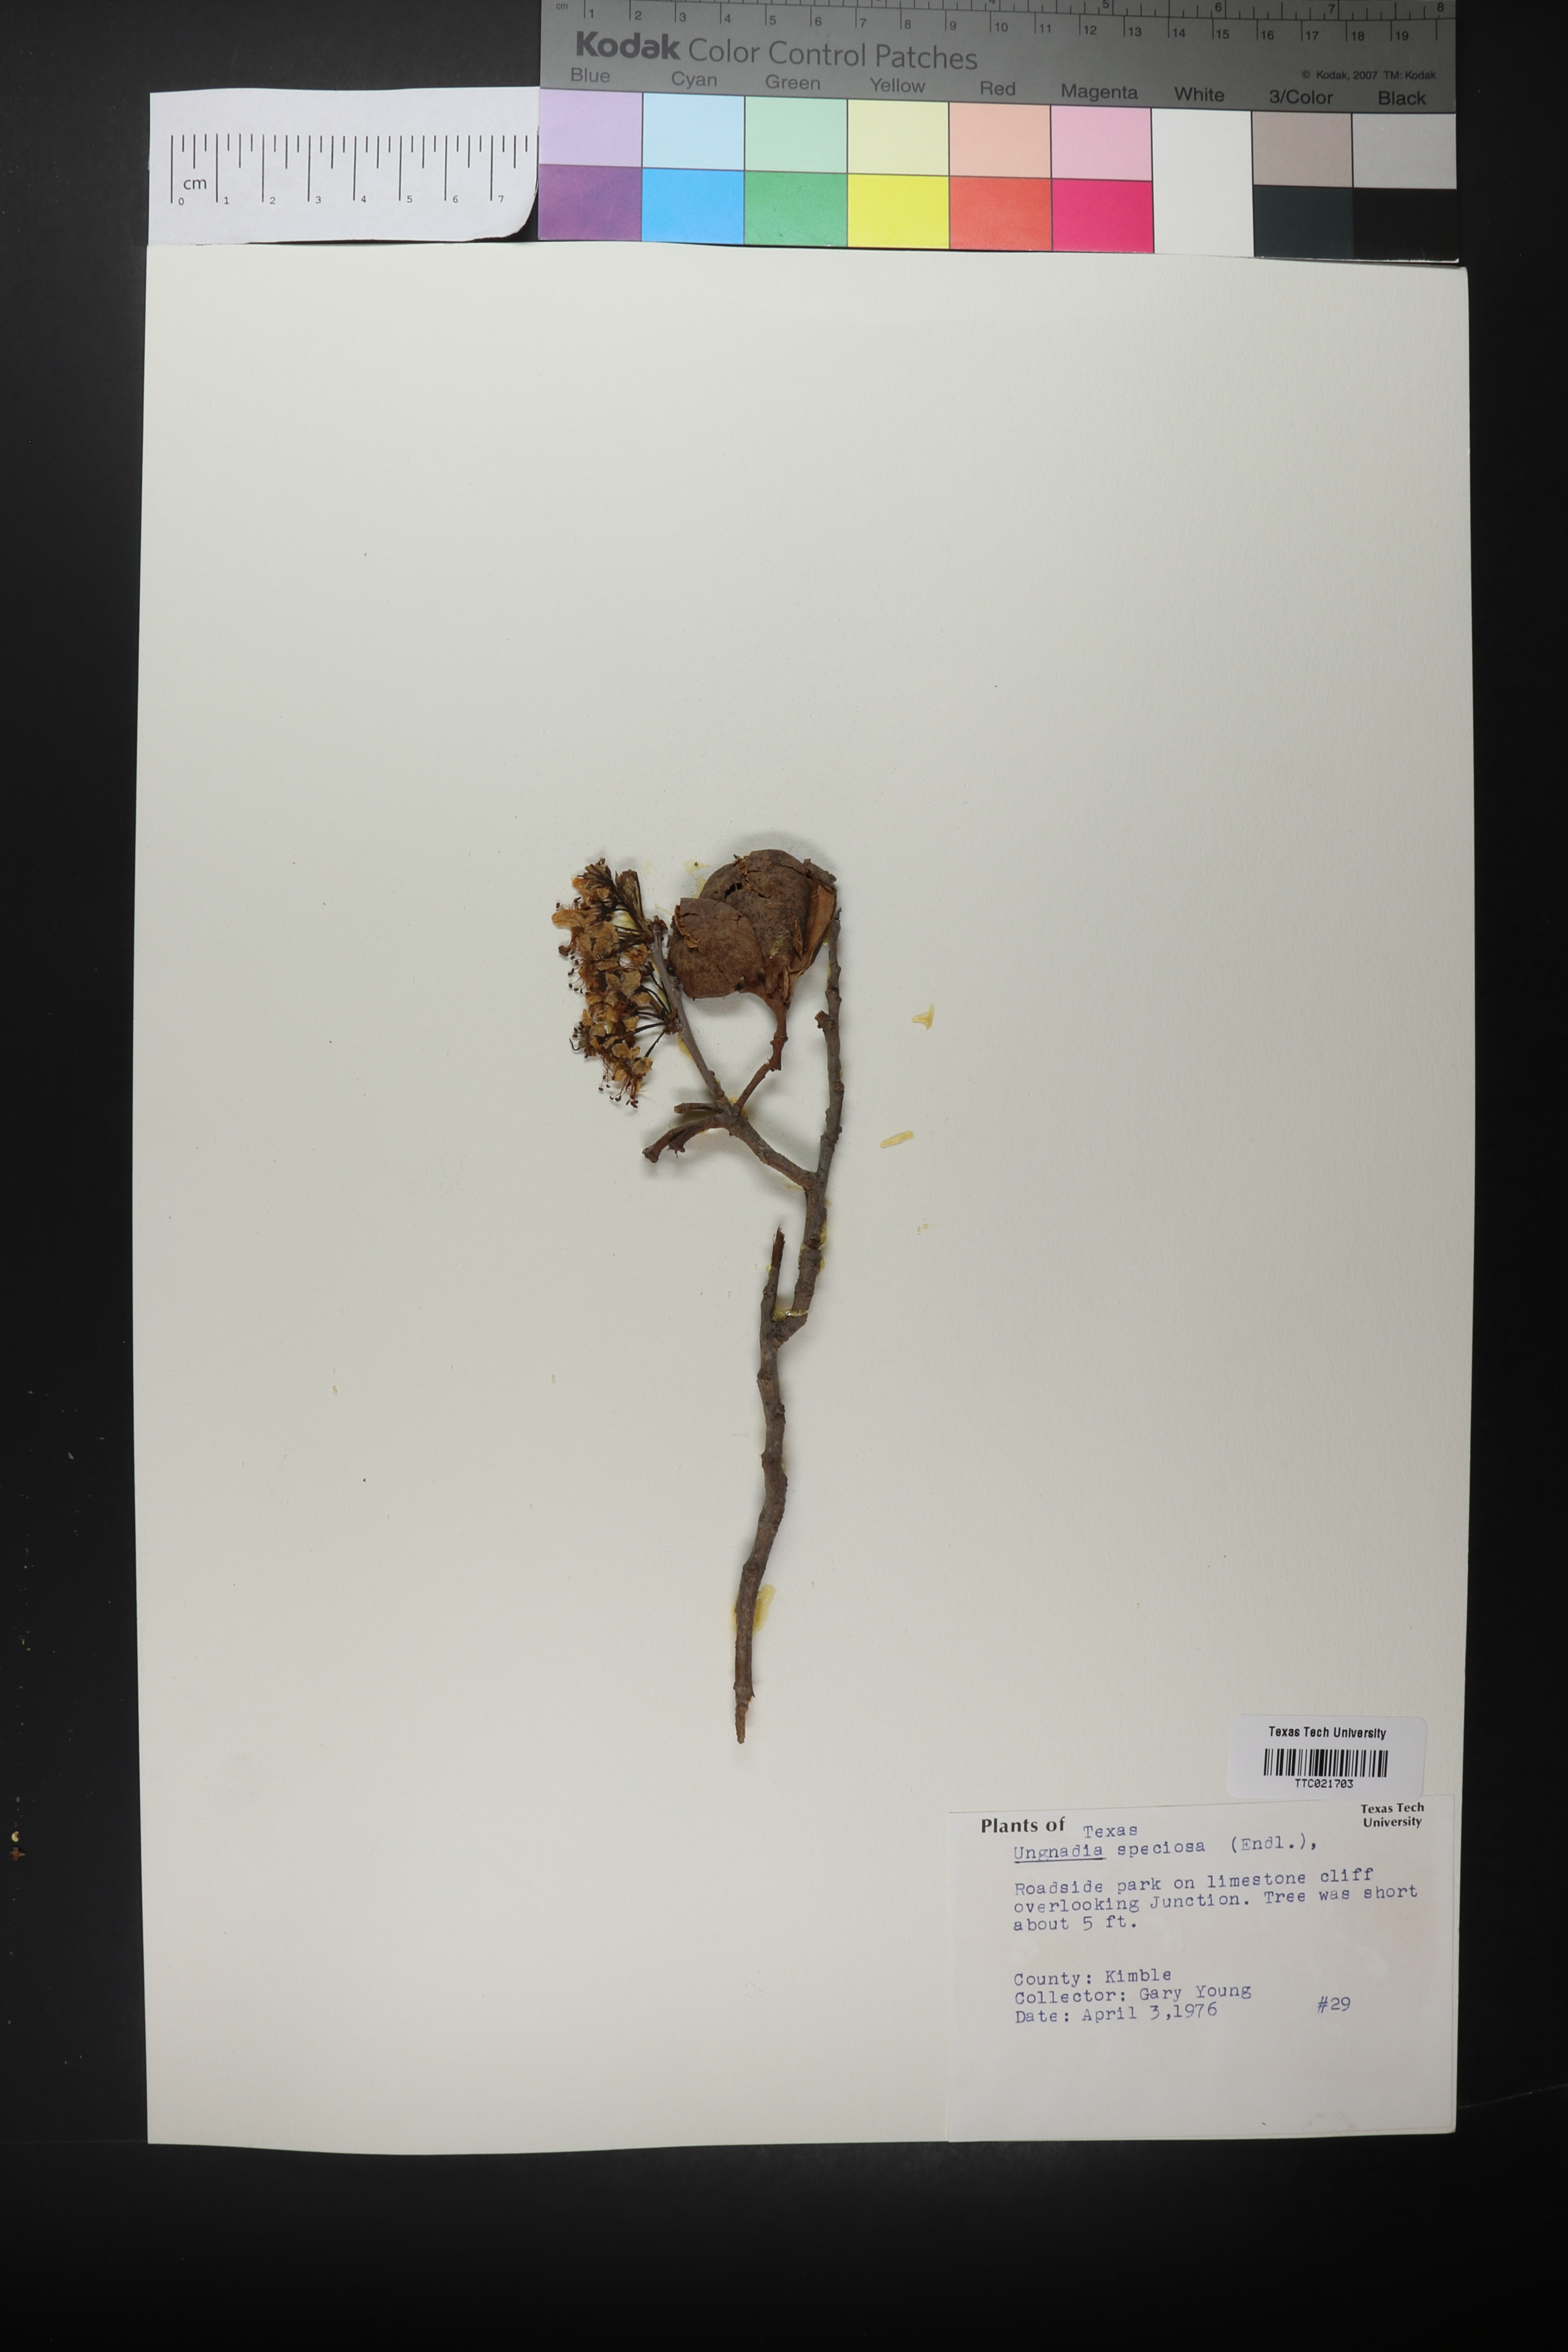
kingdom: Plantae
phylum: Tracheophyta
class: Magnoliopsida
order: Sapindales
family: Sapindaceae
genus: Ungnadia
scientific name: Ungnadia speciosa
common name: Texas-buckeye
